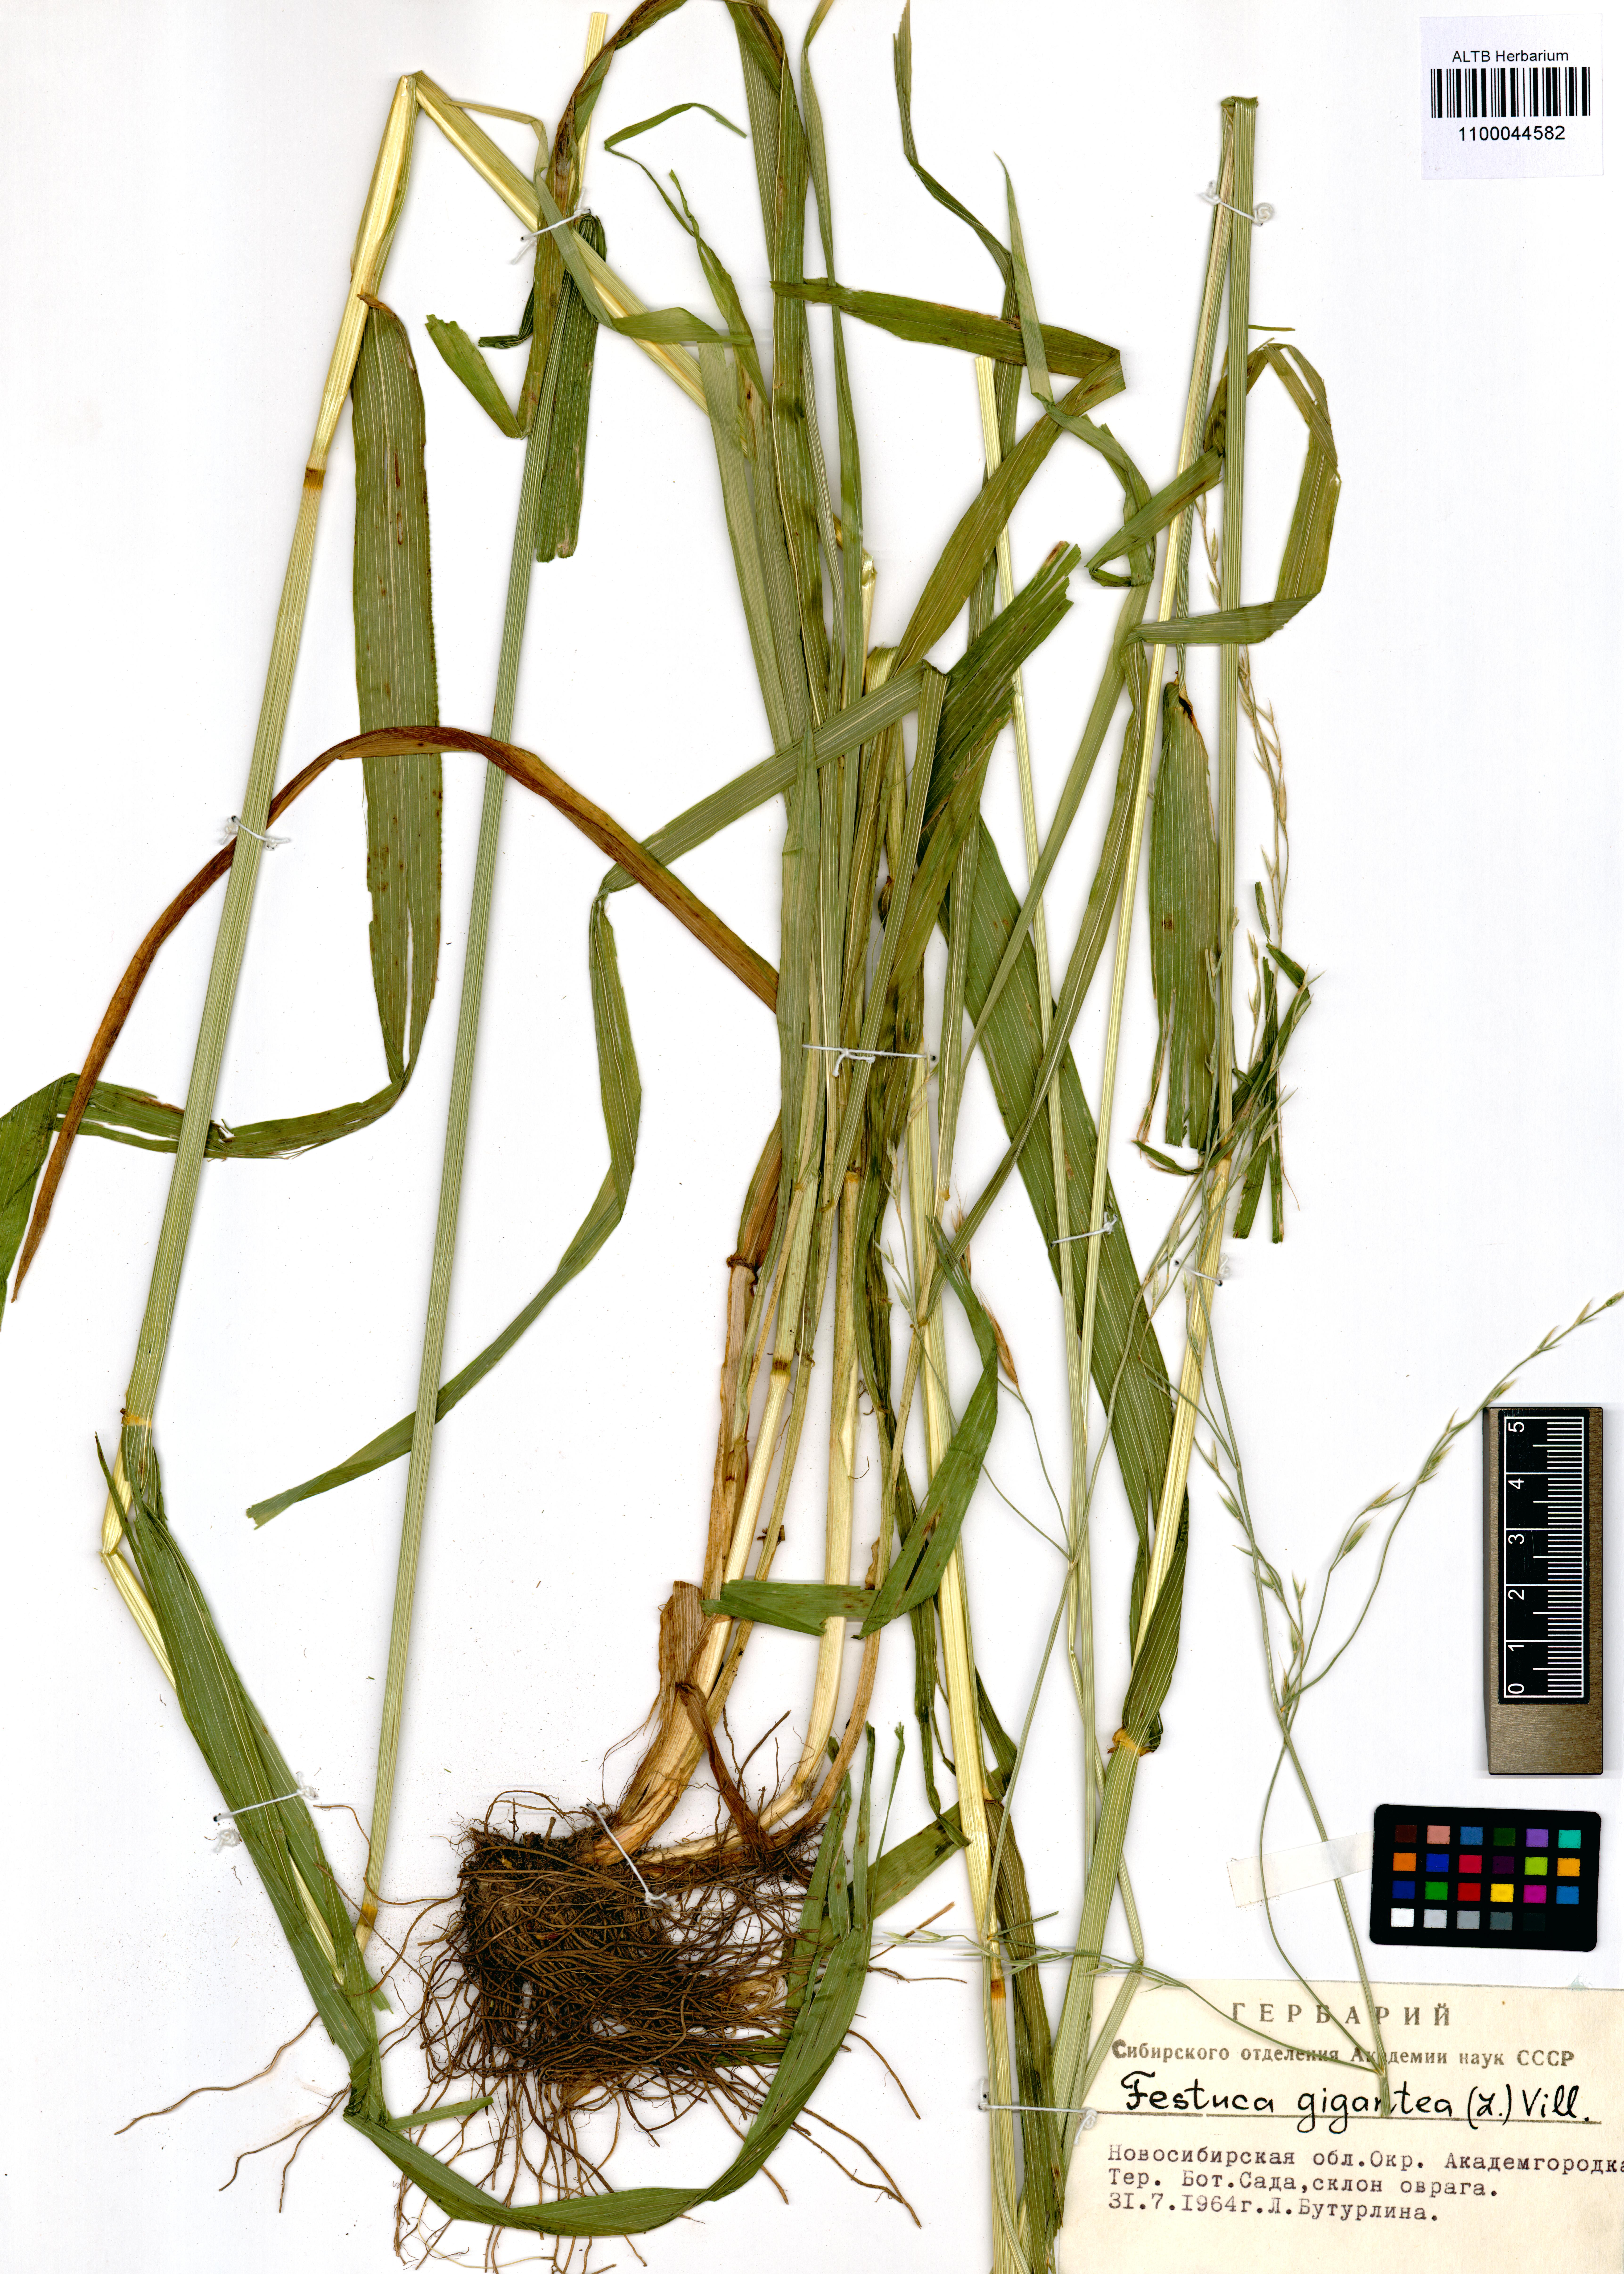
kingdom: Plantae
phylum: Tracheophyta
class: Liliopsida
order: Poales
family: Poaceae
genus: Lolium
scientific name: Lolium giganteum
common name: Giant fescue
